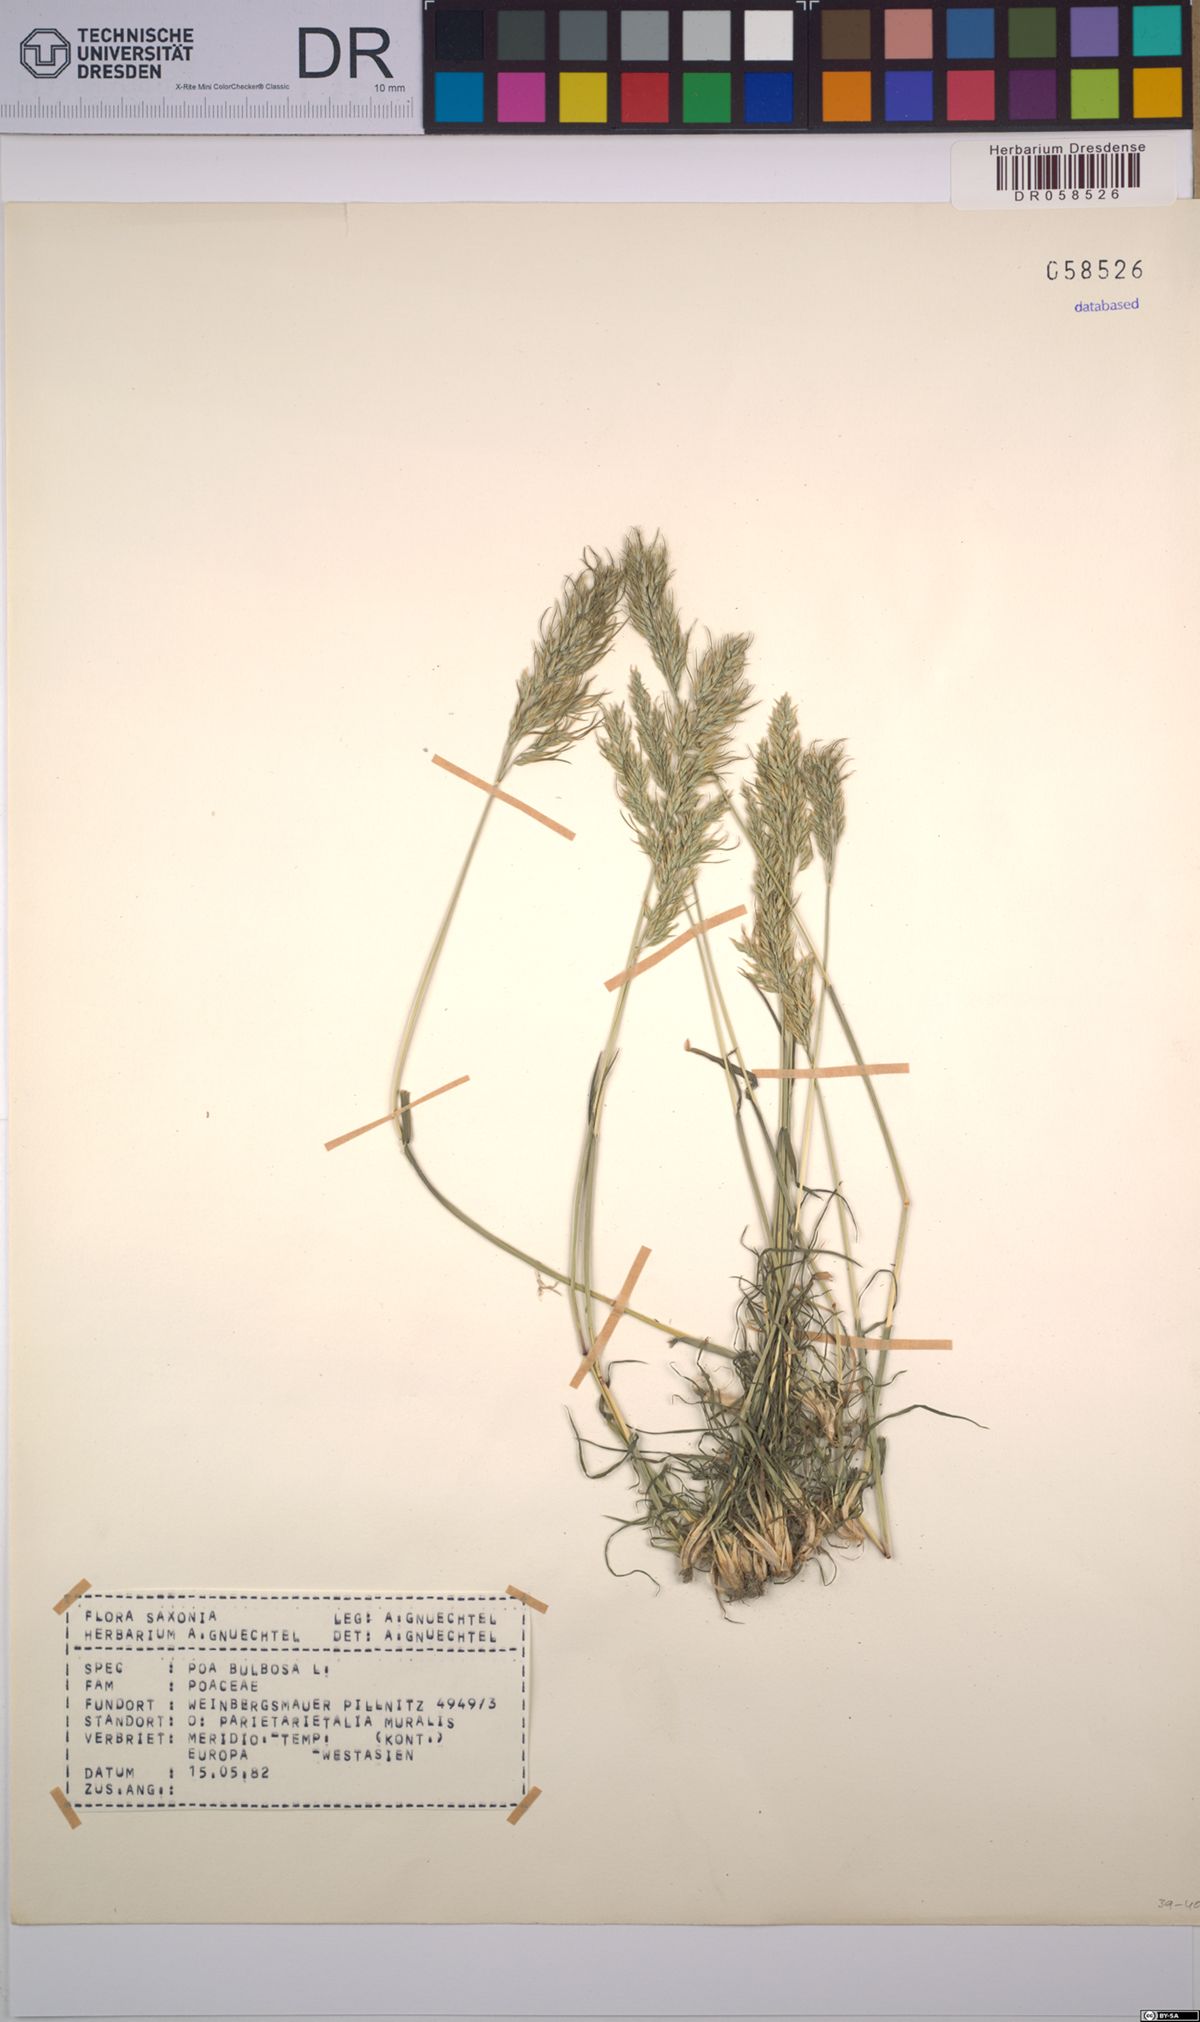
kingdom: Plantae
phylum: Tracheophyta
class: Liliopsida
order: Poales
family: Poaceae
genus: Poa
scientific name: Poa bulbosa
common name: Bulbous bluegrass
